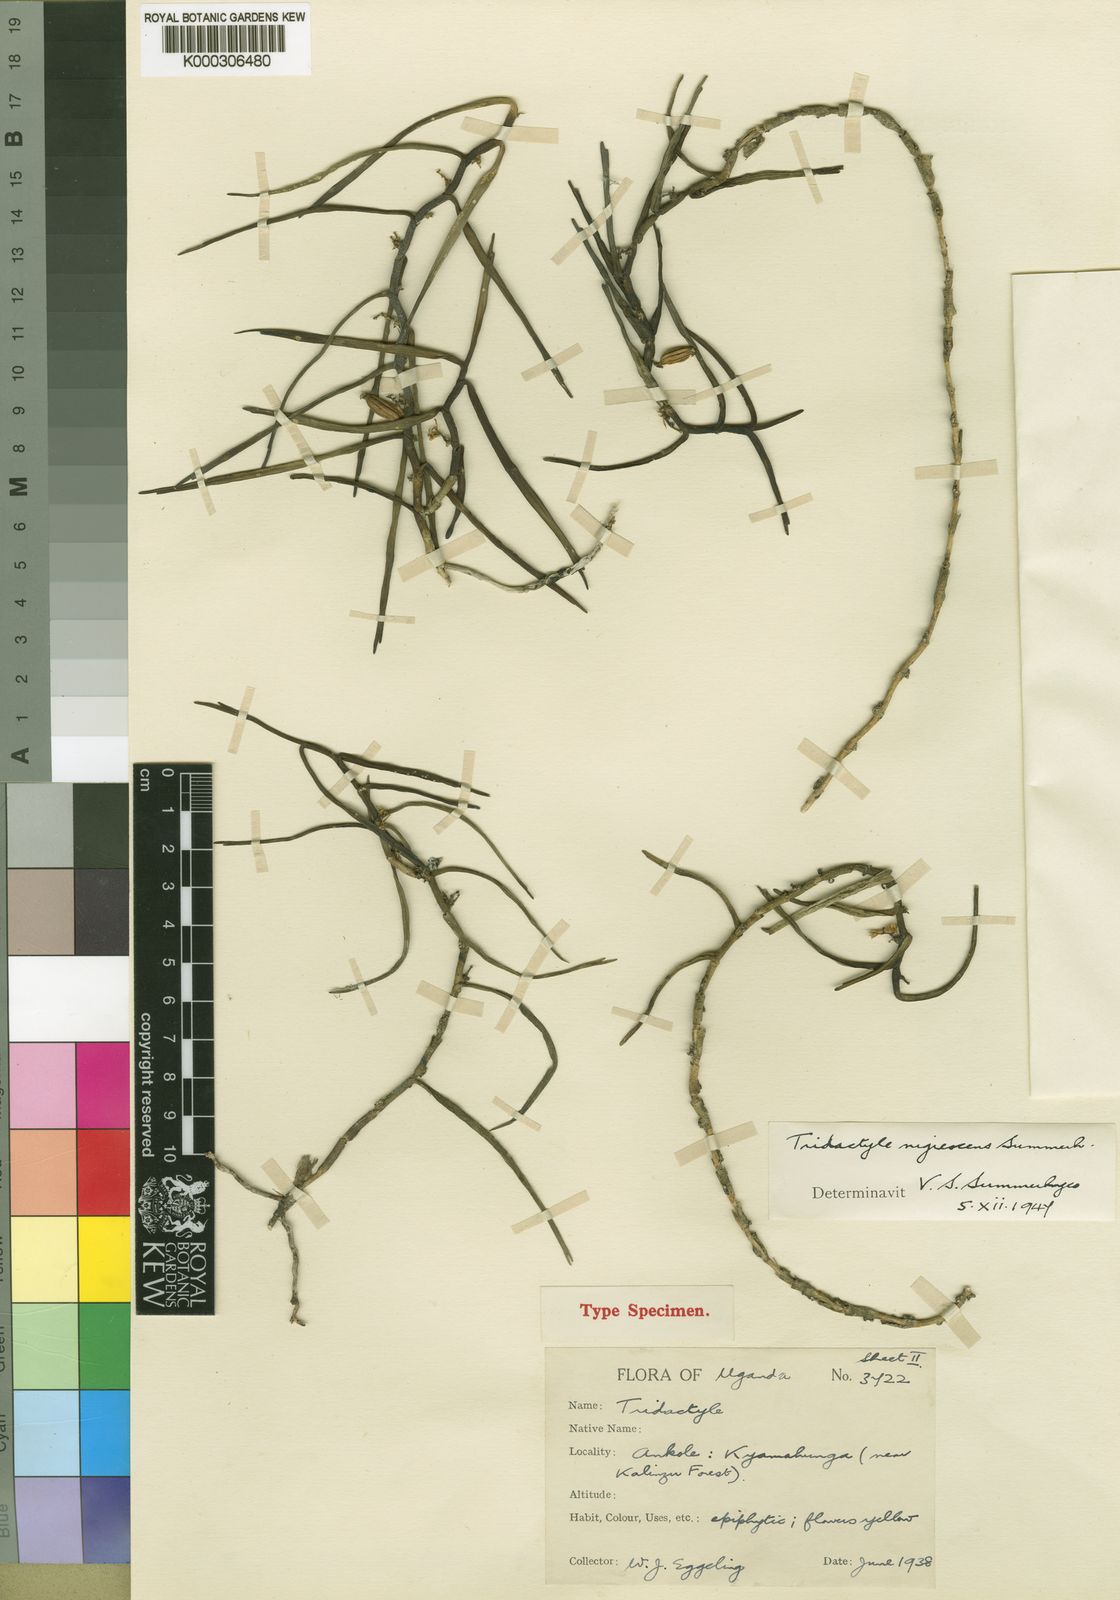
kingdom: Plantae
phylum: Tracheophyta
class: Liliopsida
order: Asparagales
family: Orchidaceae
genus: Tridactyle
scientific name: Tridactyle nigrescens
